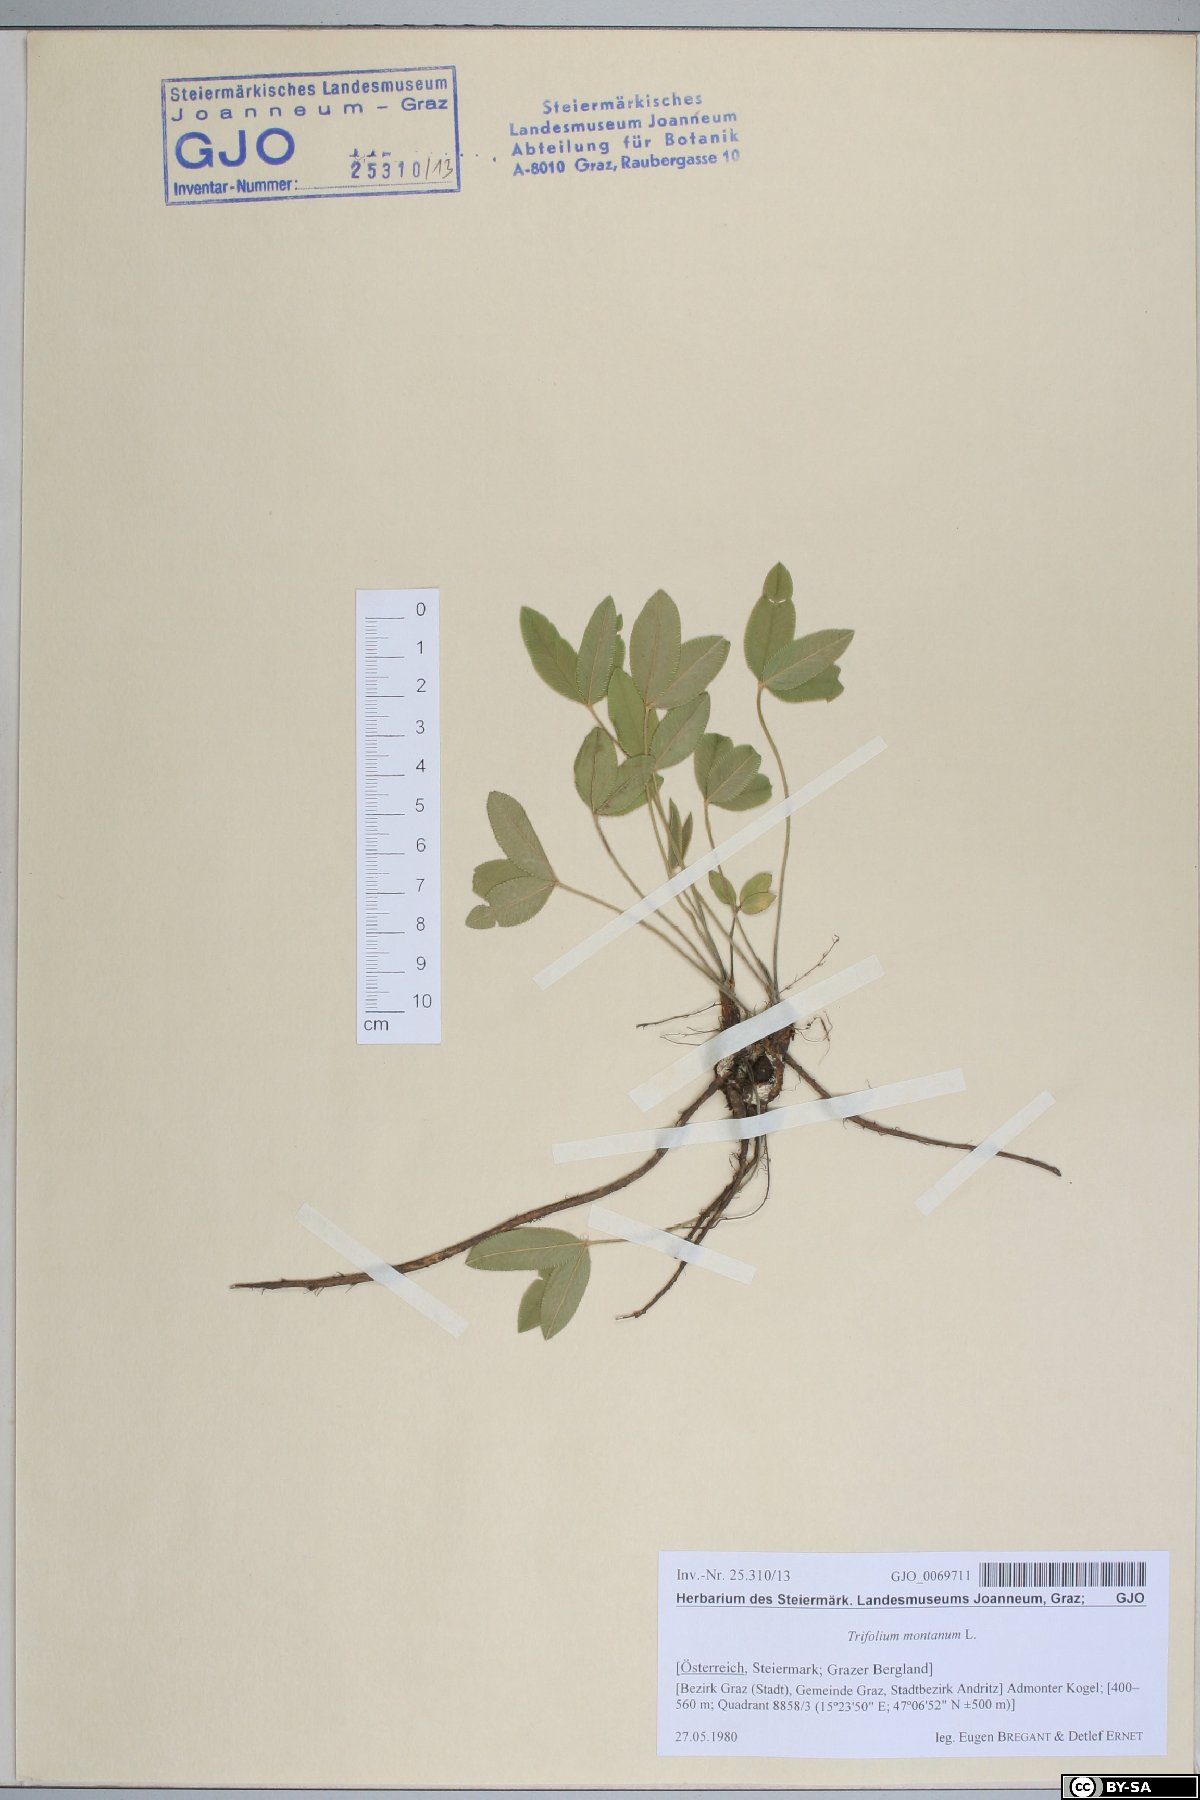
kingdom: Plantae
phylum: Tracheophyta
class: Magnoliopsida
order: Fabales
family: Fabaceae
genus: Trifolium
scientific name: Trifolium montanum
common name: Mountain clover
